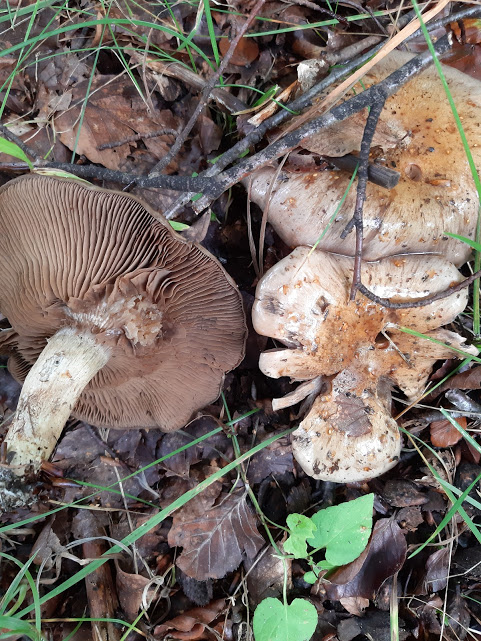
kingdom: Fungi
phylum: Basidiomycota
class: Agaricomycetes
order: Agaricales
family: Cortinariaceae
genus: Cortinarius
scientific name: Cortinarius
